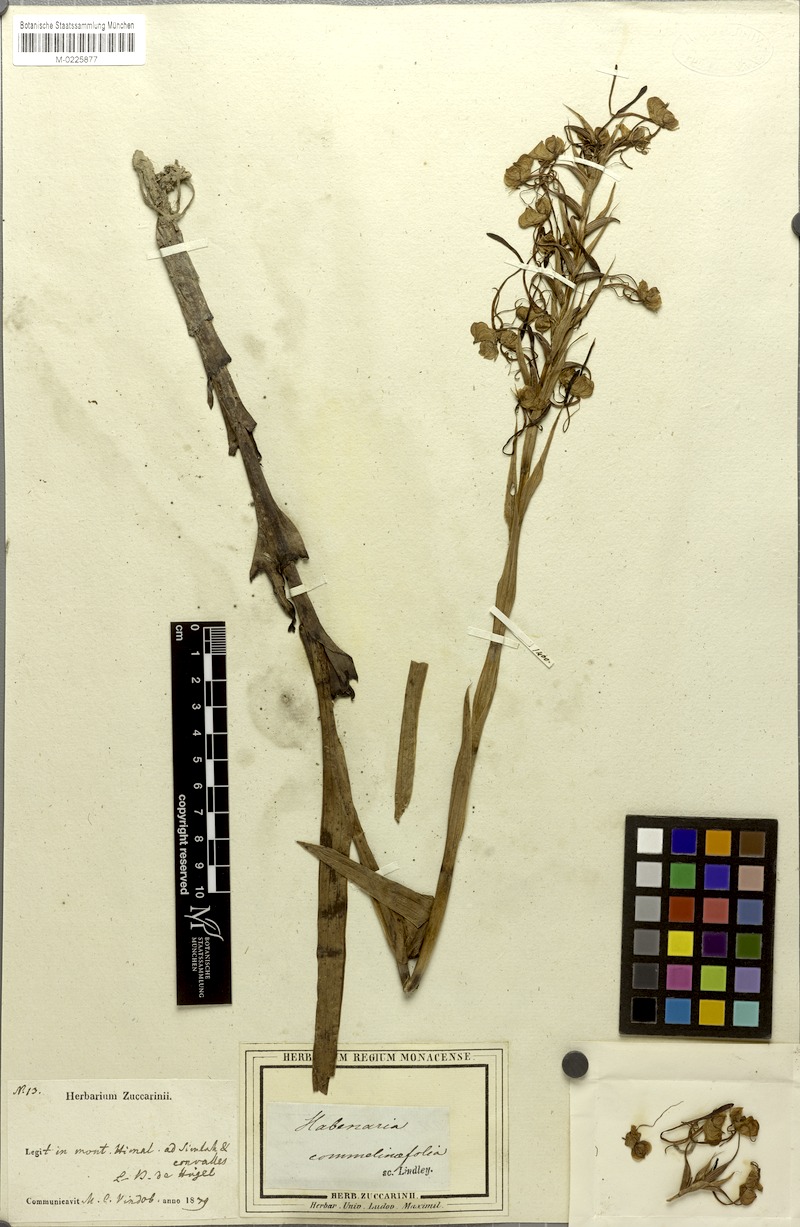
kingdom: Plantae
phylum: Tracheophyta
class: Liliopsida
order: Asparagales
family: Orchidaceae
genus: Habenaria
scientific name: Habenaria commelinifolia
